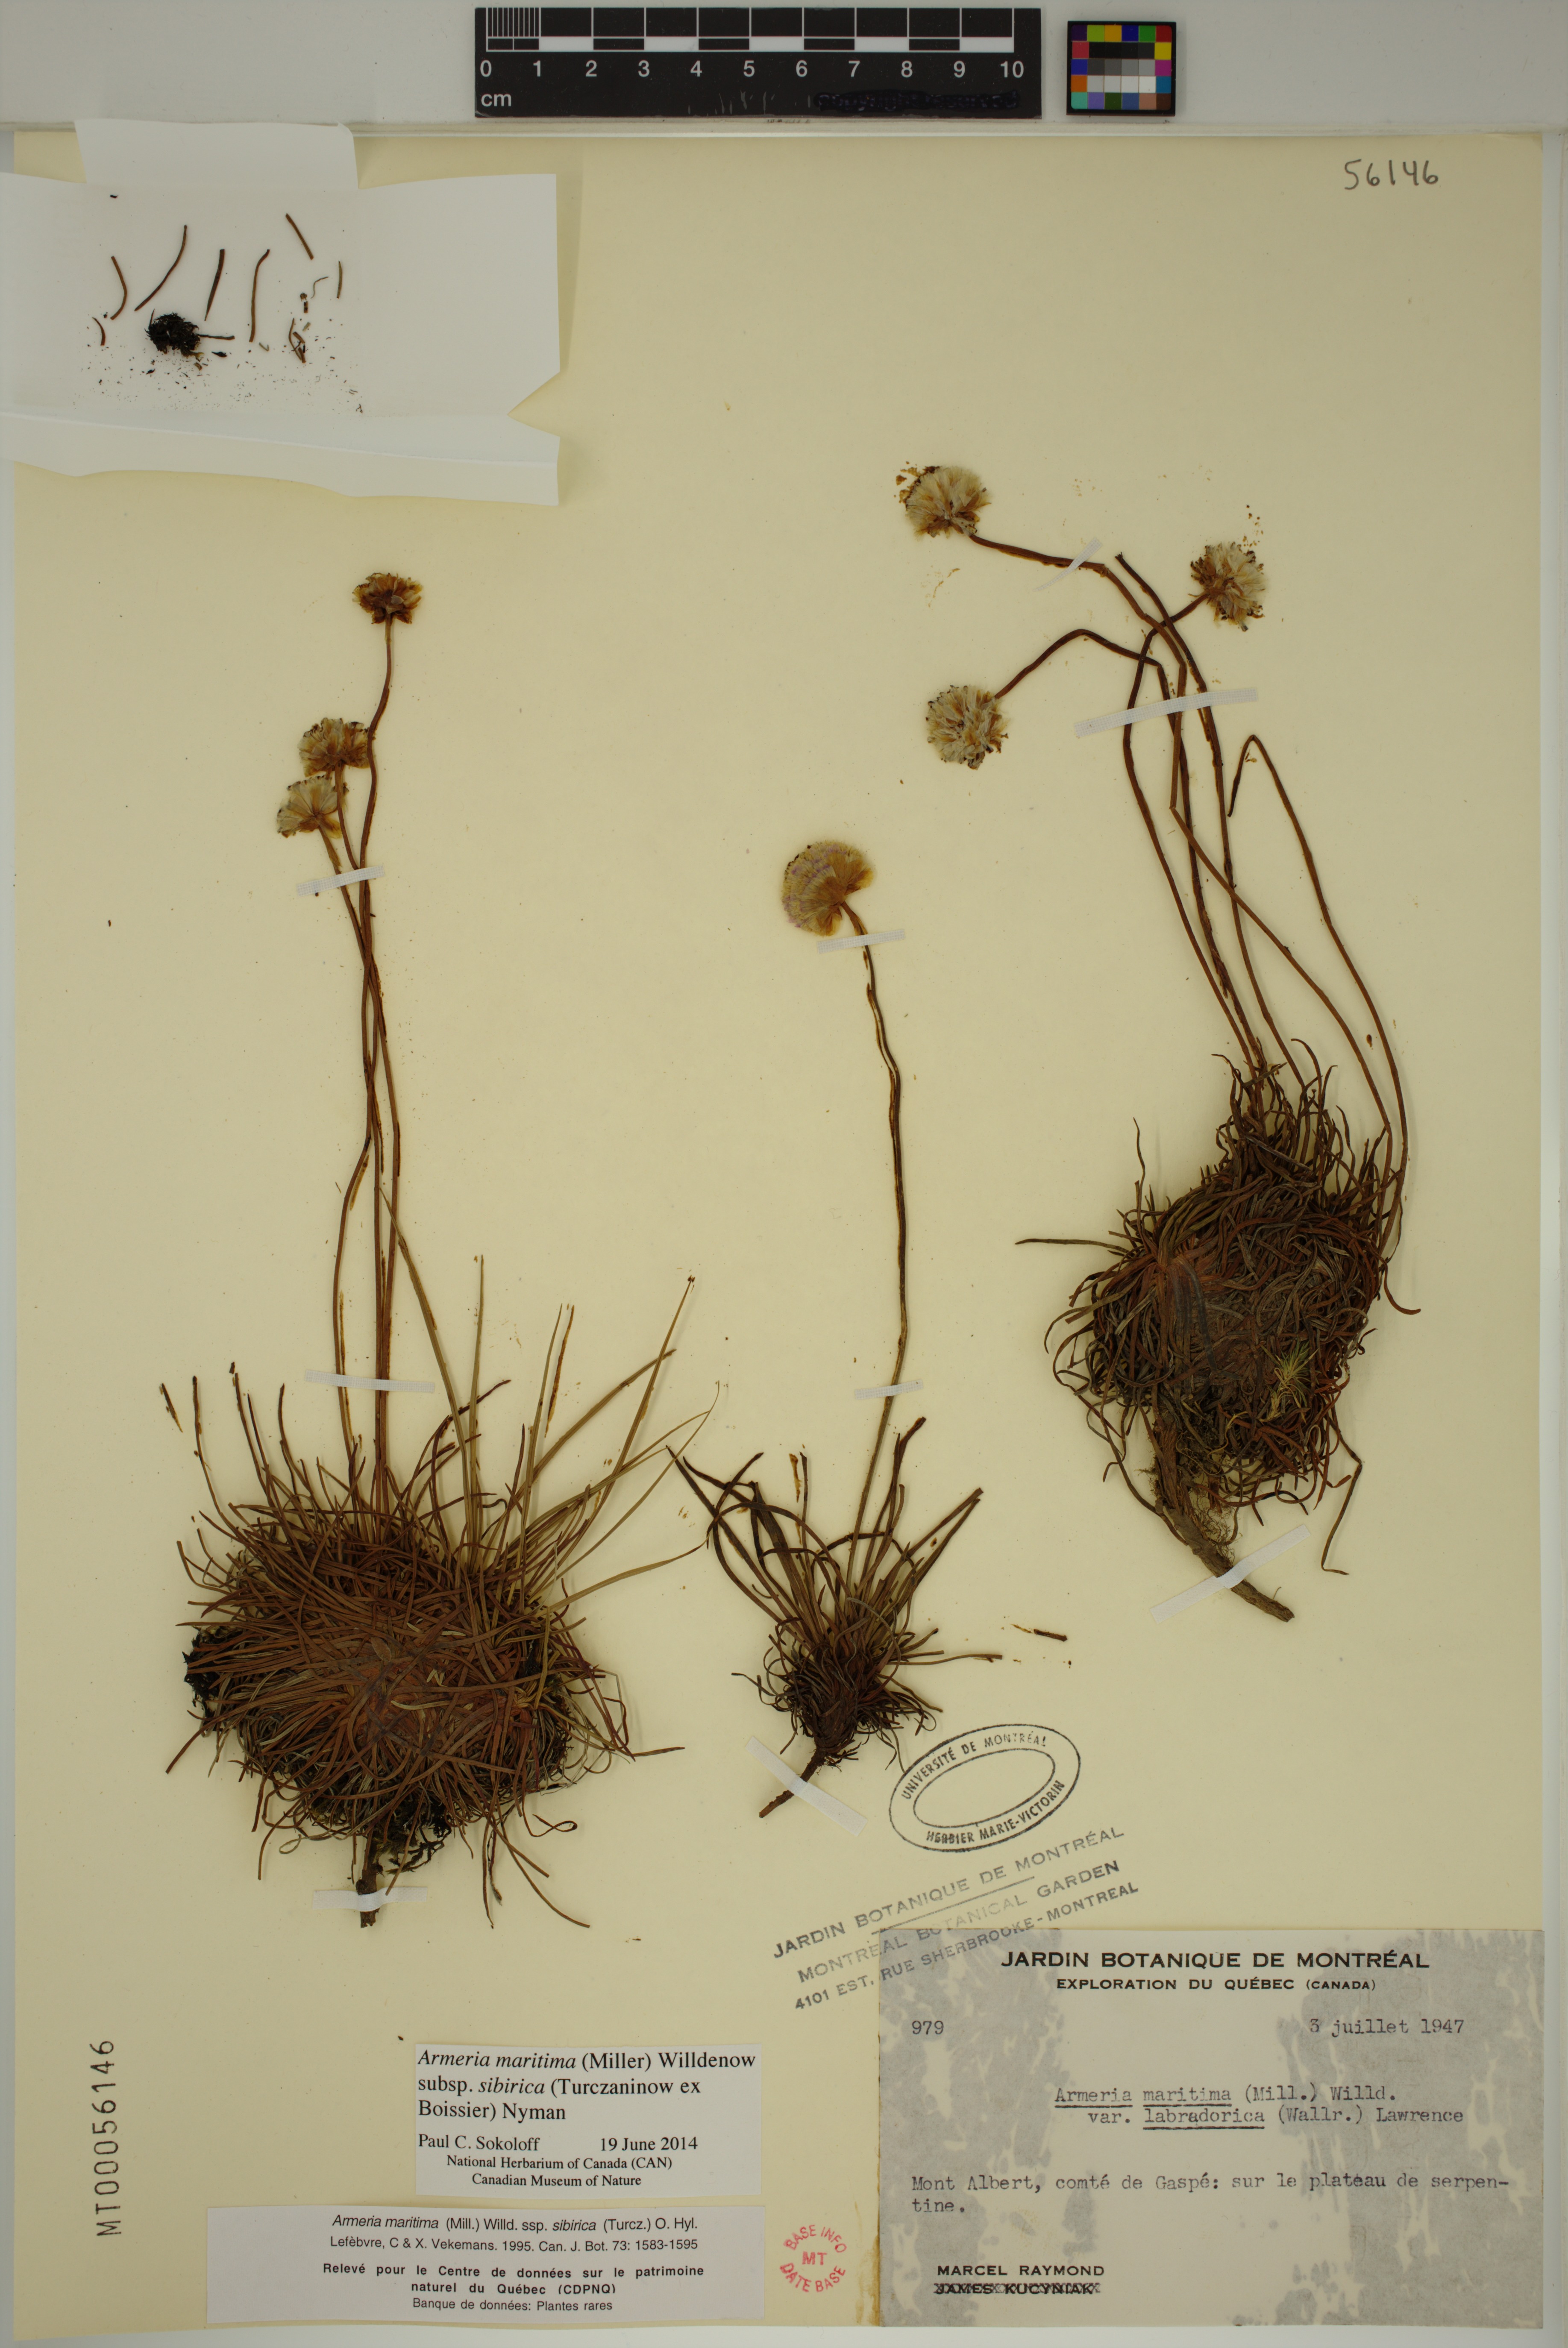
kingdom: Plantae
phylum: Tracheophyta
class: Magnoliopsida
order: Caryophyllales
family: Plumbaginaceae
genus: Armeria
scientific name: Armeria maritima
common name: Thrift
